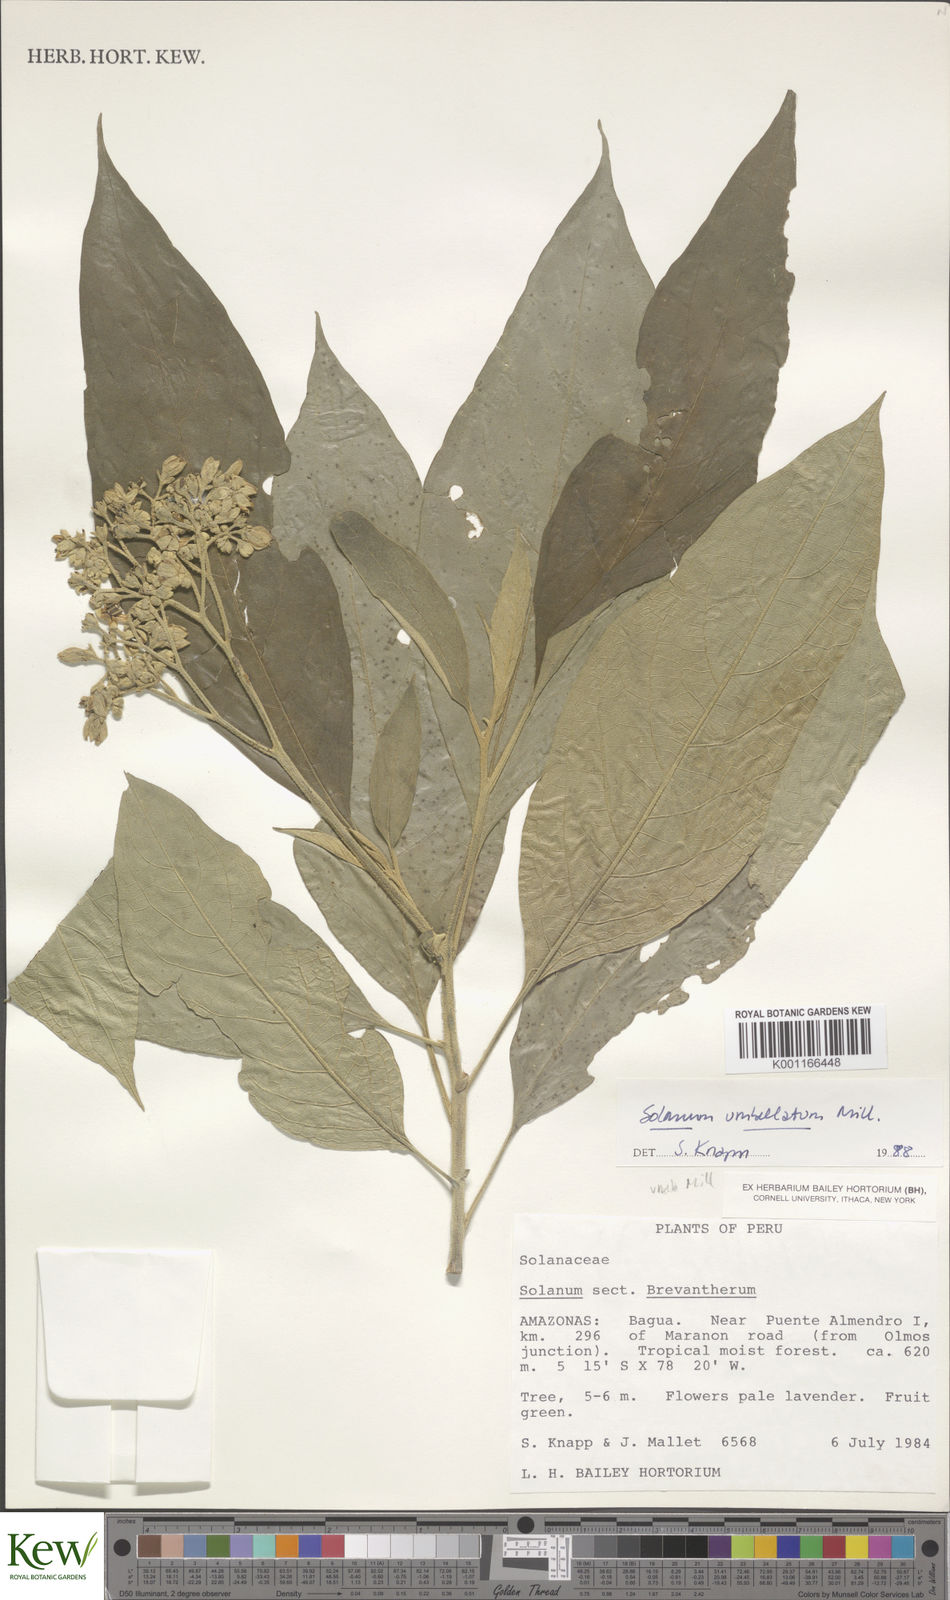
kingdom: Plantae
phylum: Tracheophyta
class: Magnoliopsida
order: Solanales
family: Solanaceae
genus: Solanum
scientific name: Solanum umbellatum
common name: Nightshade
